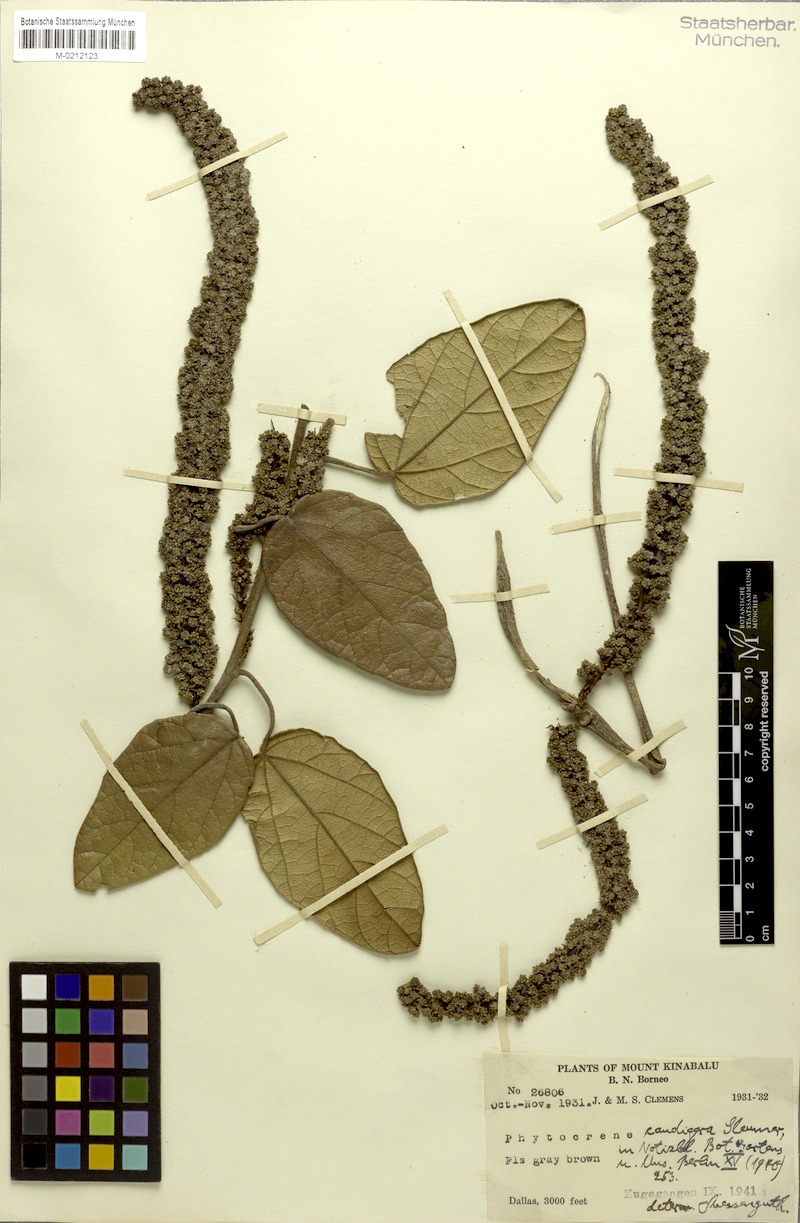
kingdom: Plantae
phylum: Tracheophyta
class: Magnoliopsida
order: Icacinales
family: Icacinaceae
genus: Phytocrene
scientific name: Phytocrene macrophylla
